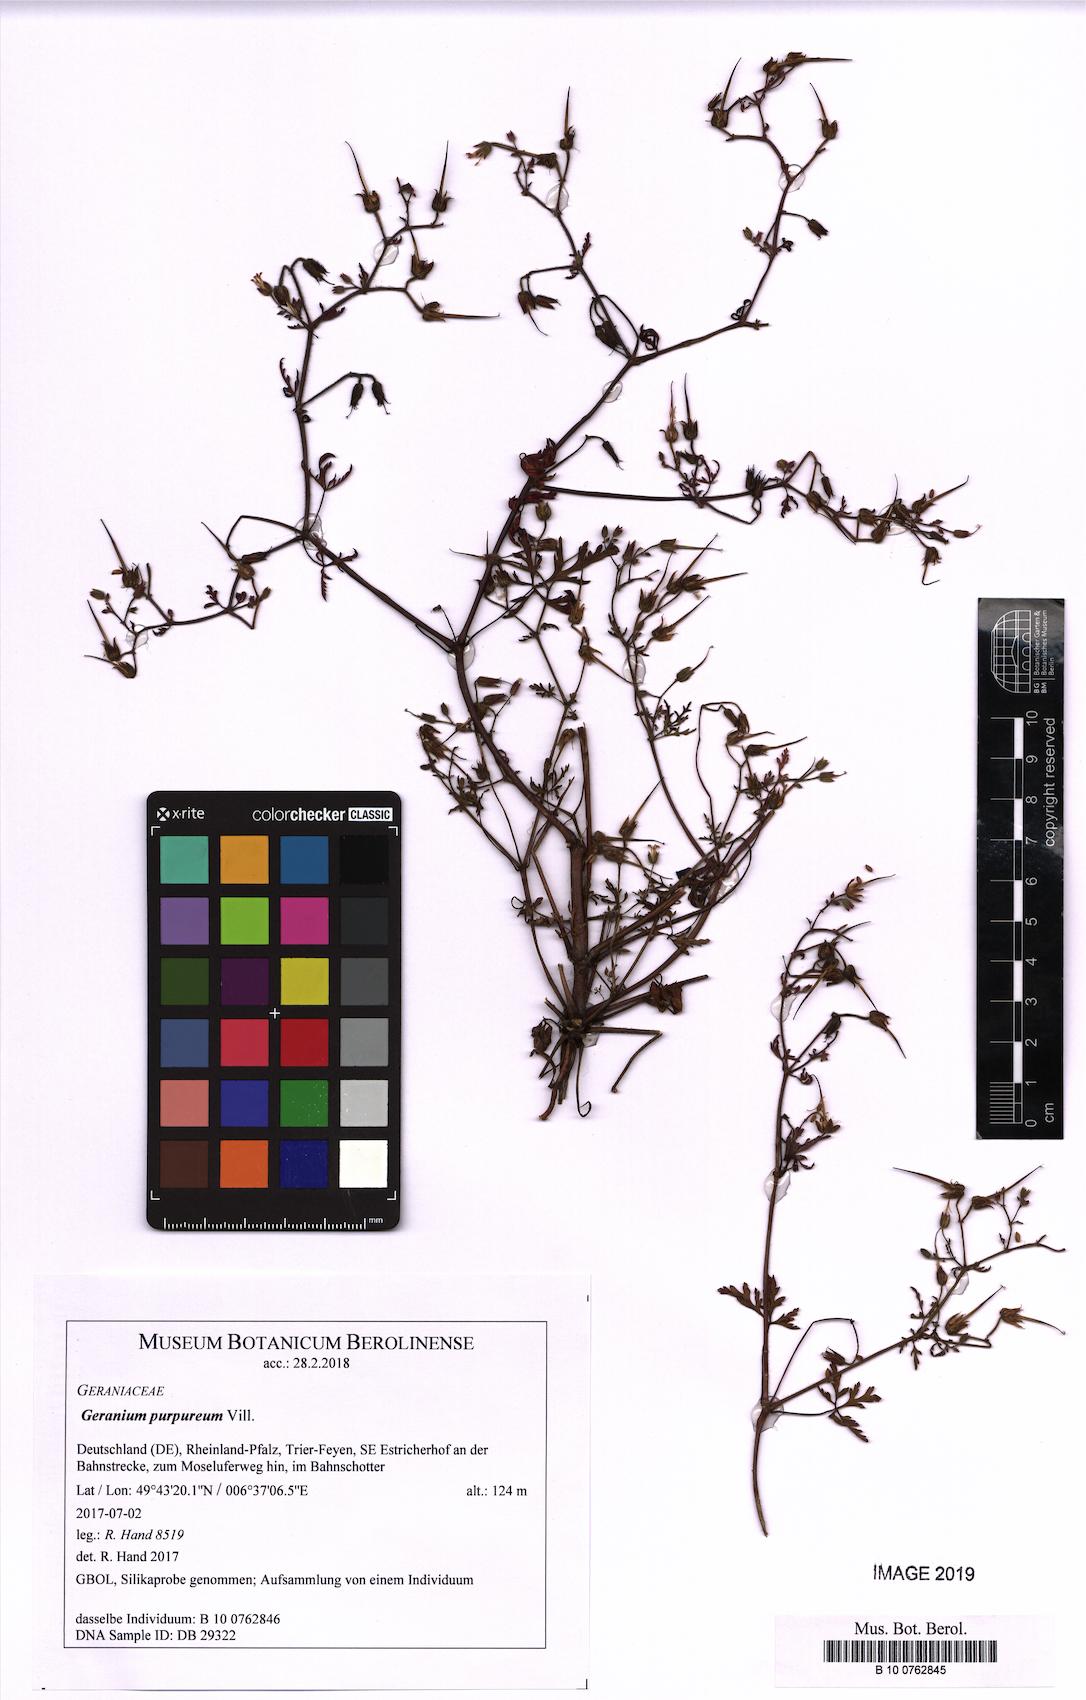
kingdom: Plantae
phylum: Tracheophyta
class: Magnoliopsida
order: Geraniales
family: Geraniaceae
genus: Geranium
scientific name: Geranium purpureum
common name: Little-robin
